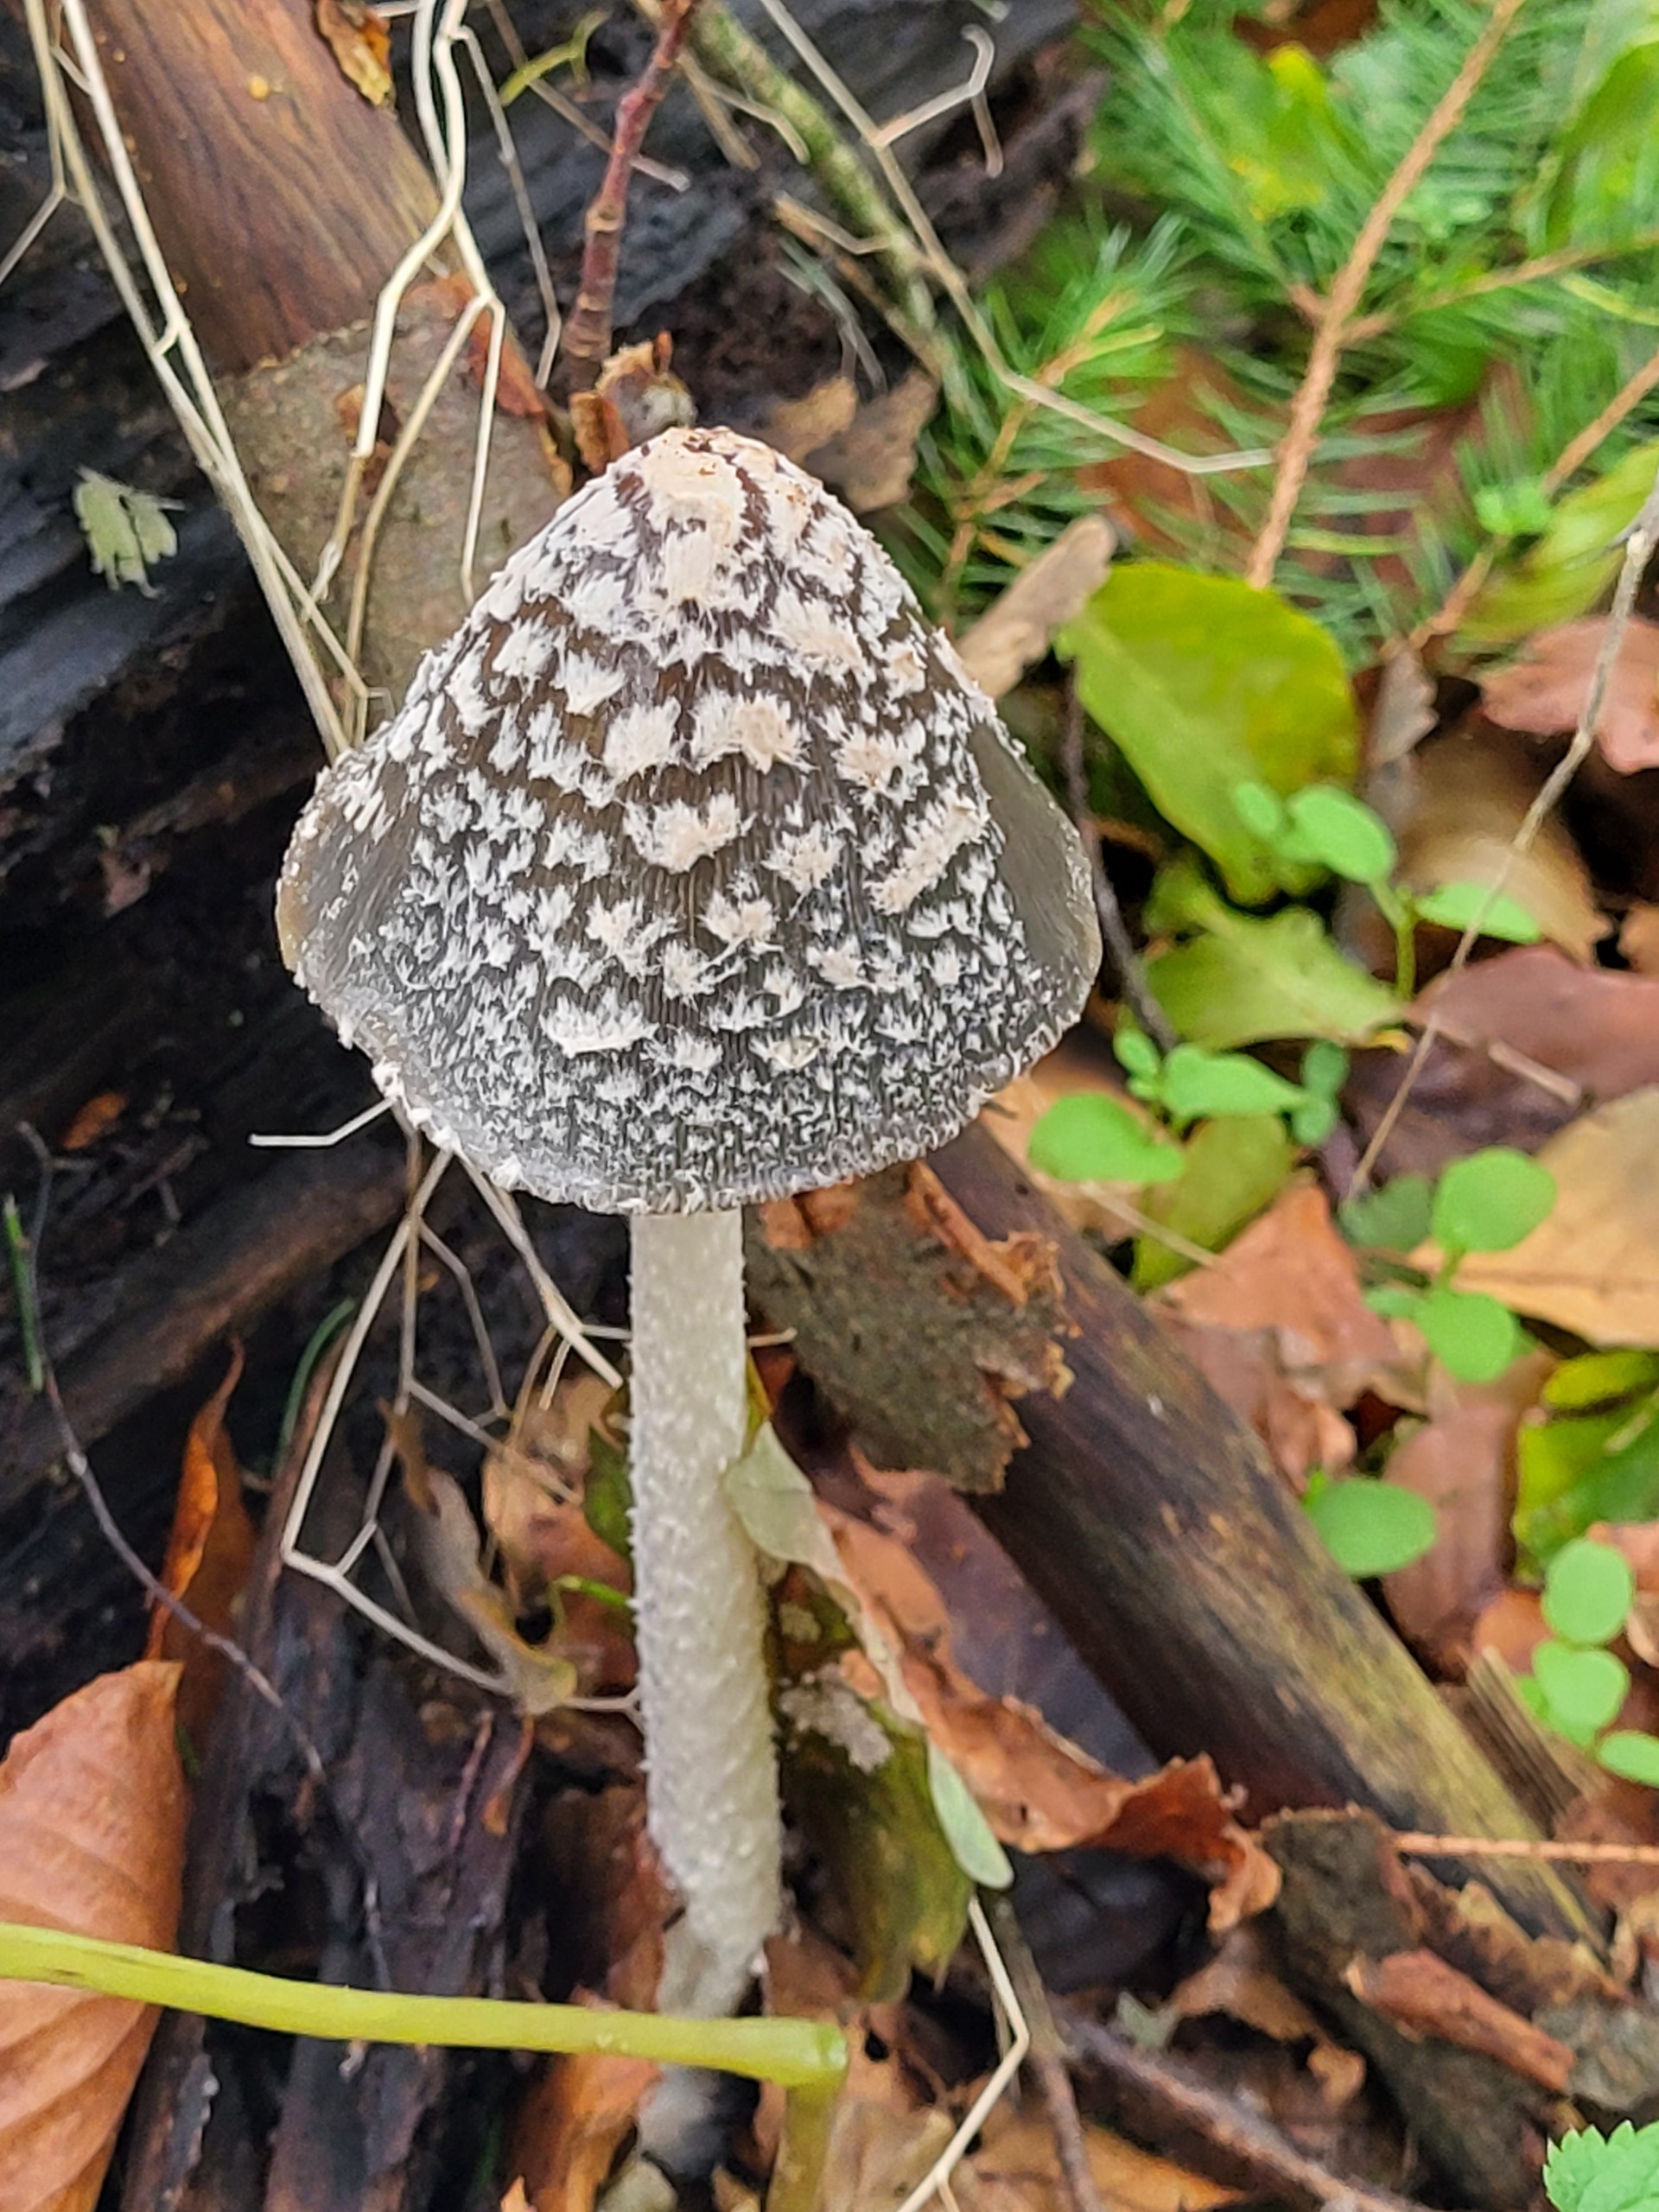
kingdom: Fungi
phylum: Basidiomycota
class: Agaricomycetes
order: Agaricales
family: Psathyrellaceae
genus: Coprinopsis
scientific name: Coprinopsis picacea
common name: Skade-blækhat
